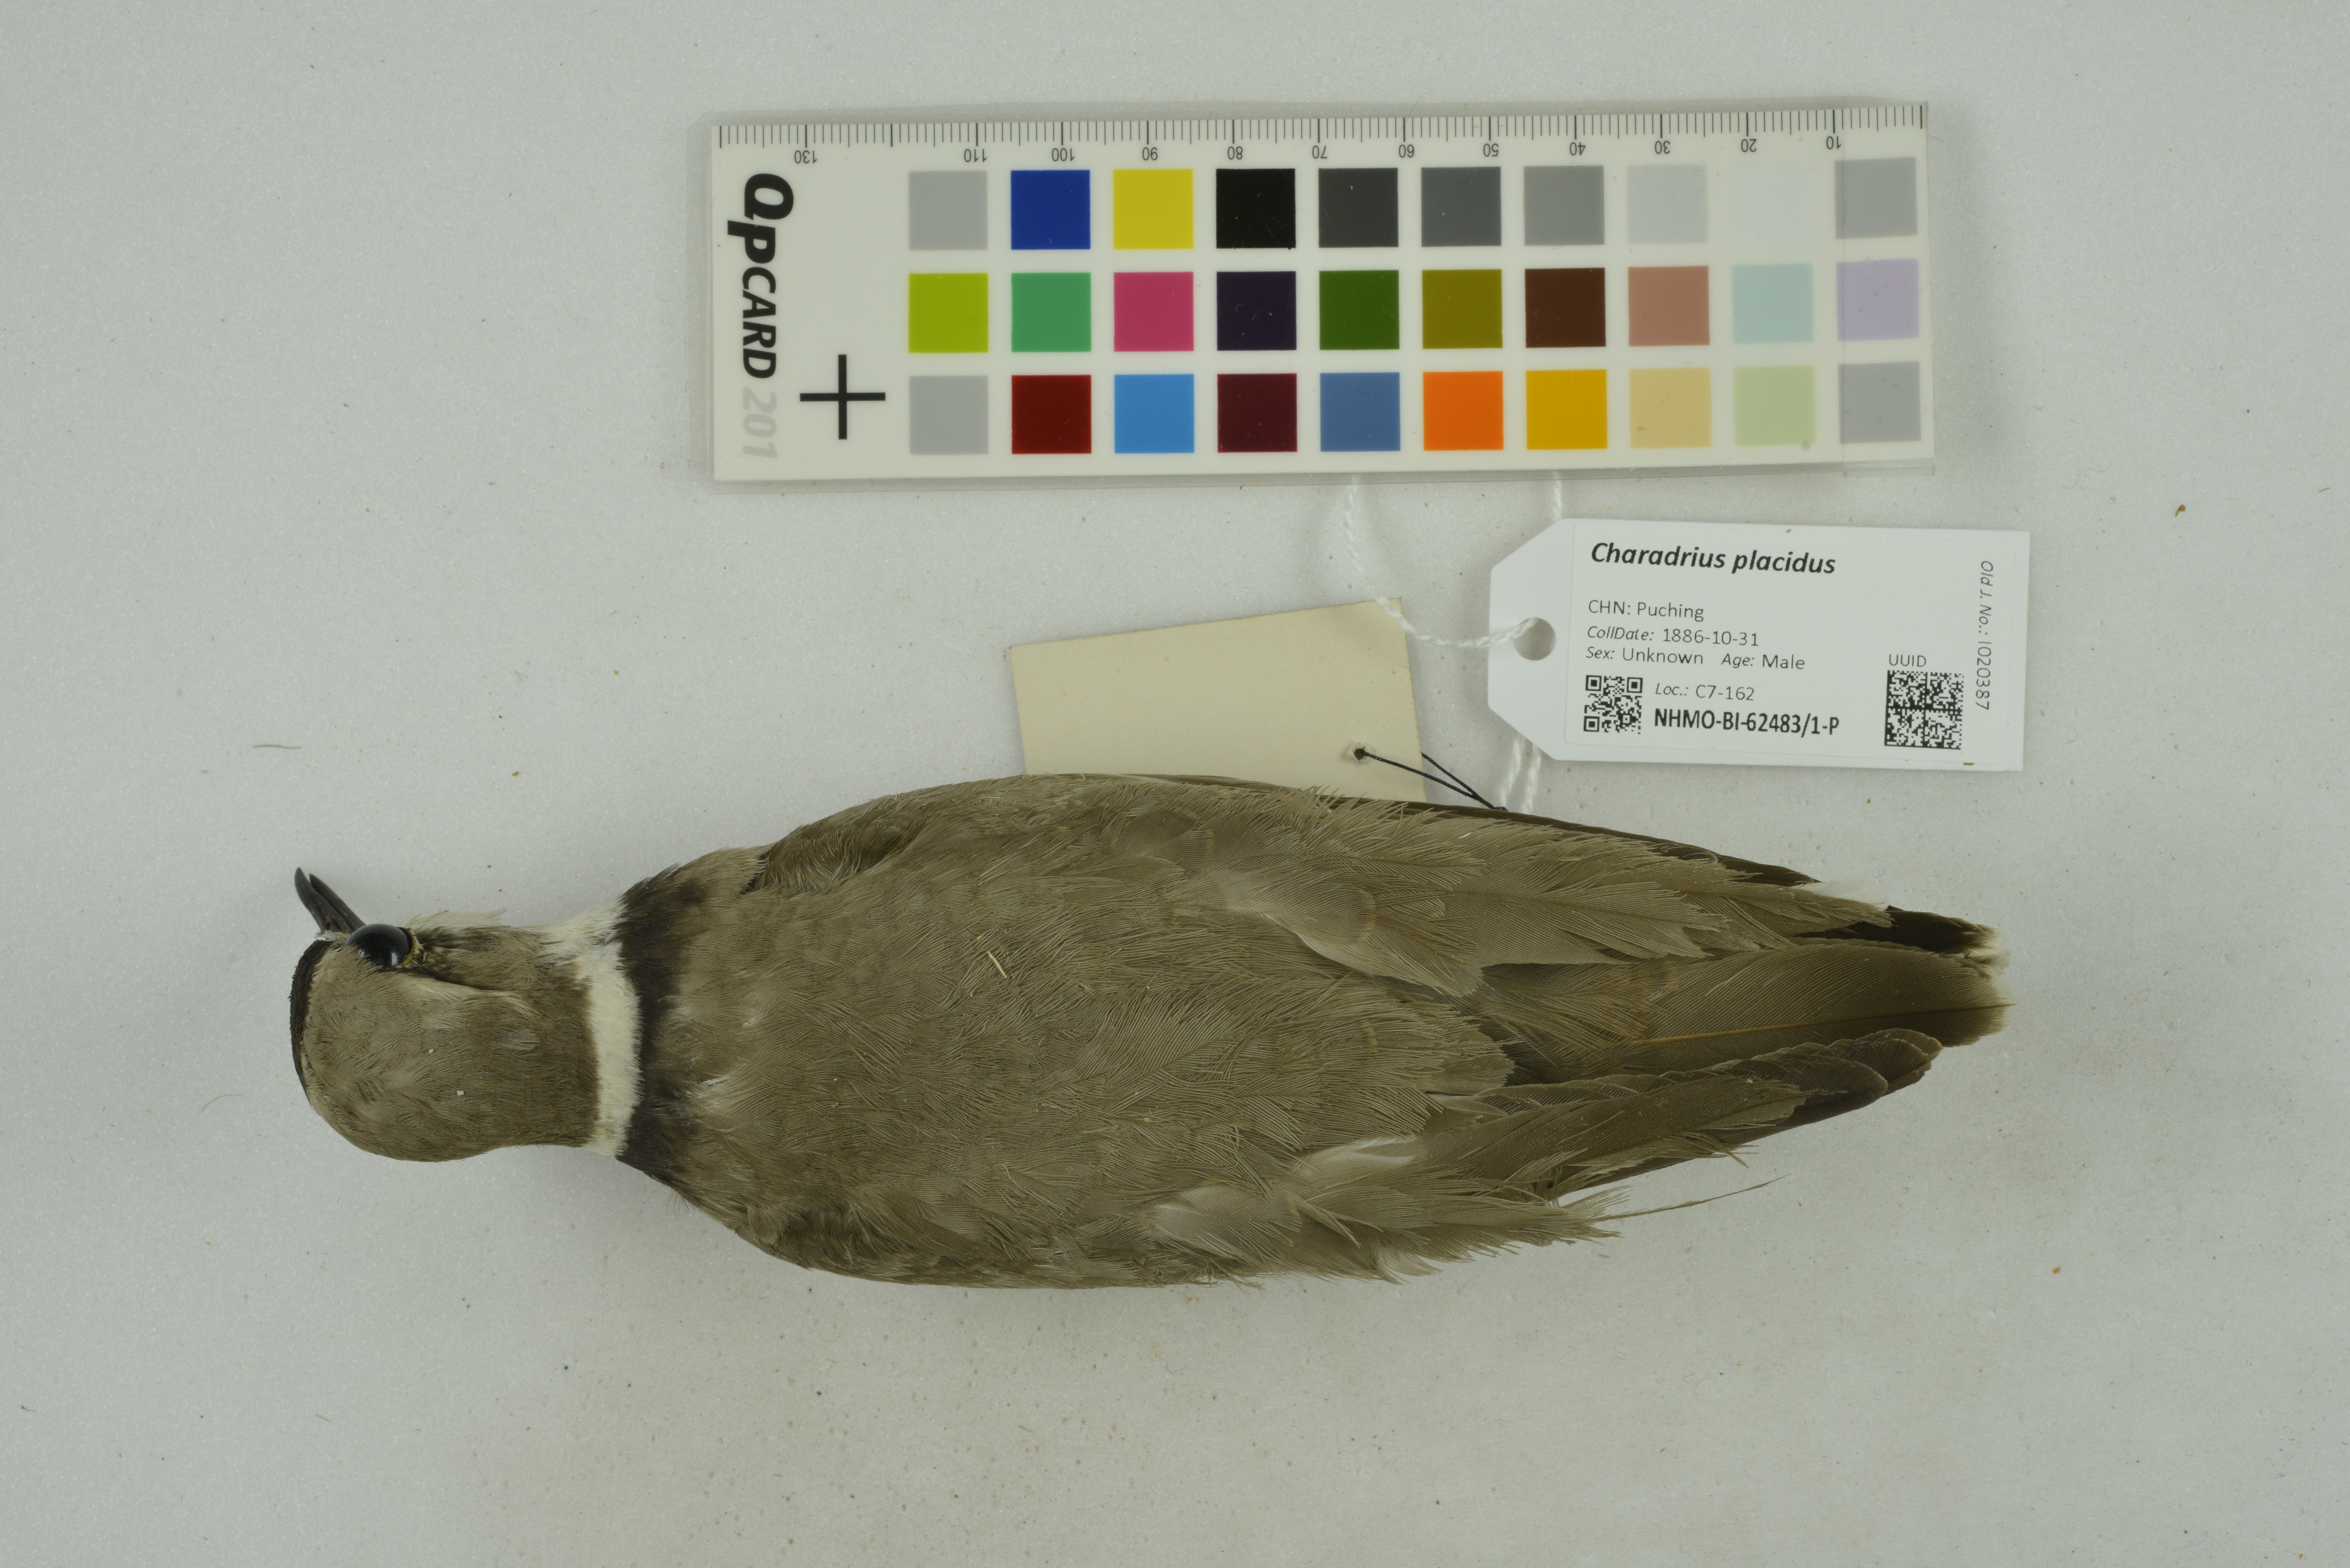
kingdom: Animalia
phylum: Chordata
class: Aves
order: Charadriiformes
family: Charadriidae
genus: Charadrius
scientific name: Charadrius placidus
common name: Long-billed plover
